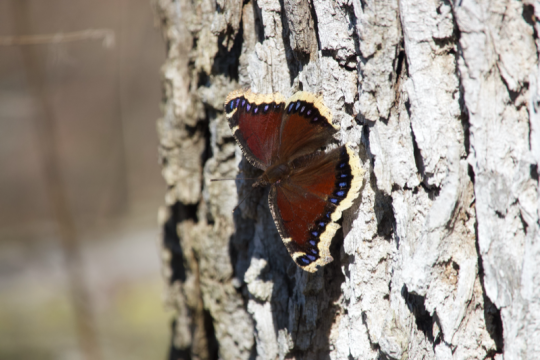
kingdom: Animalia
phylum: Arthropoda
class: Insecta
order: Lepidoptera
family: Nymphalidae
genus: Nymphalis
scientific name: Nymphalis antiopa
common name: Mourning Cloak
